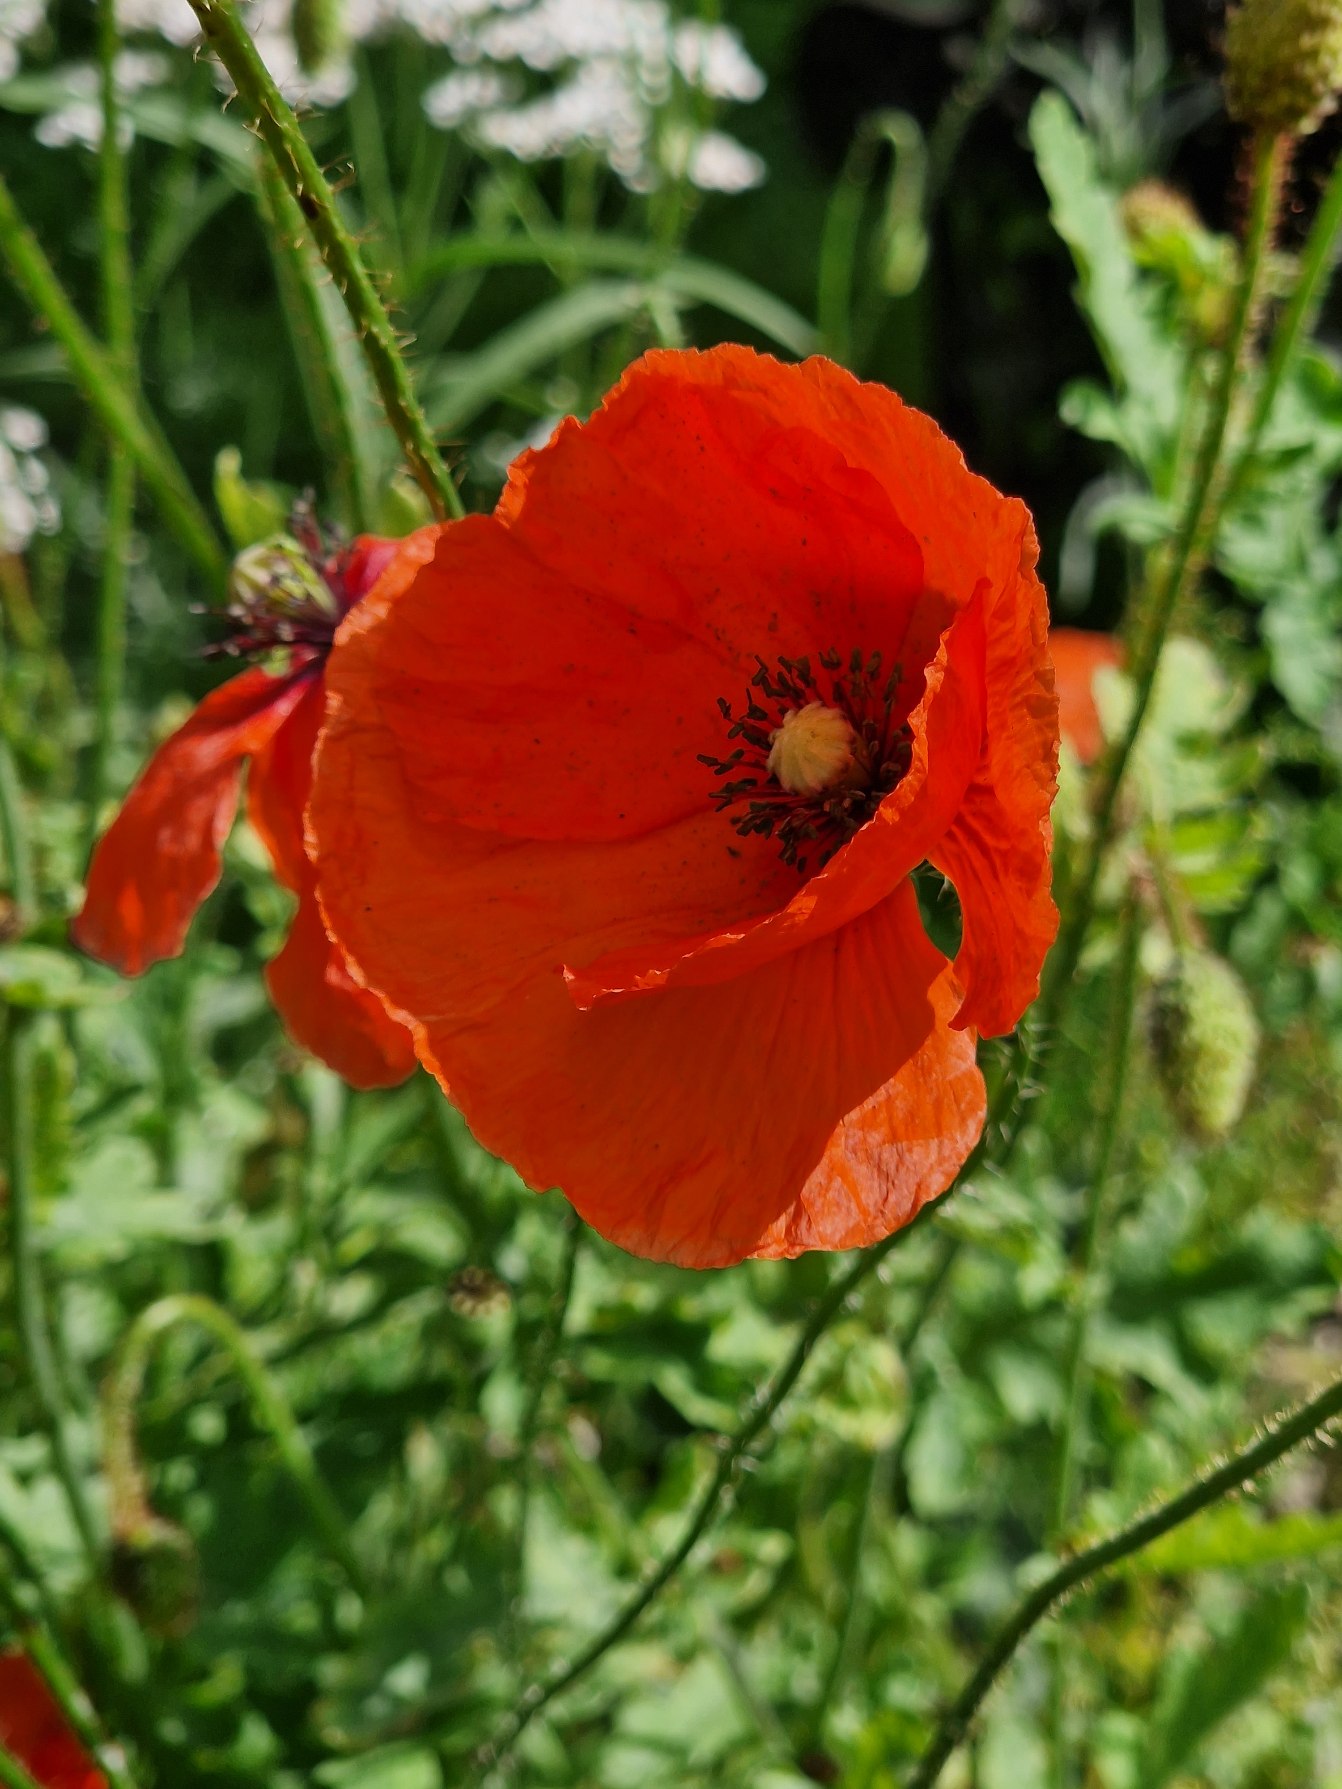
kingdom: Plantae
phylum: Tracheophyta
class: Magnoliopsida
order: Ranunculales
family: Papaveraceae
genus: Papaver
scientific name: Papaver rhoeas
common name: Korn-valmue
